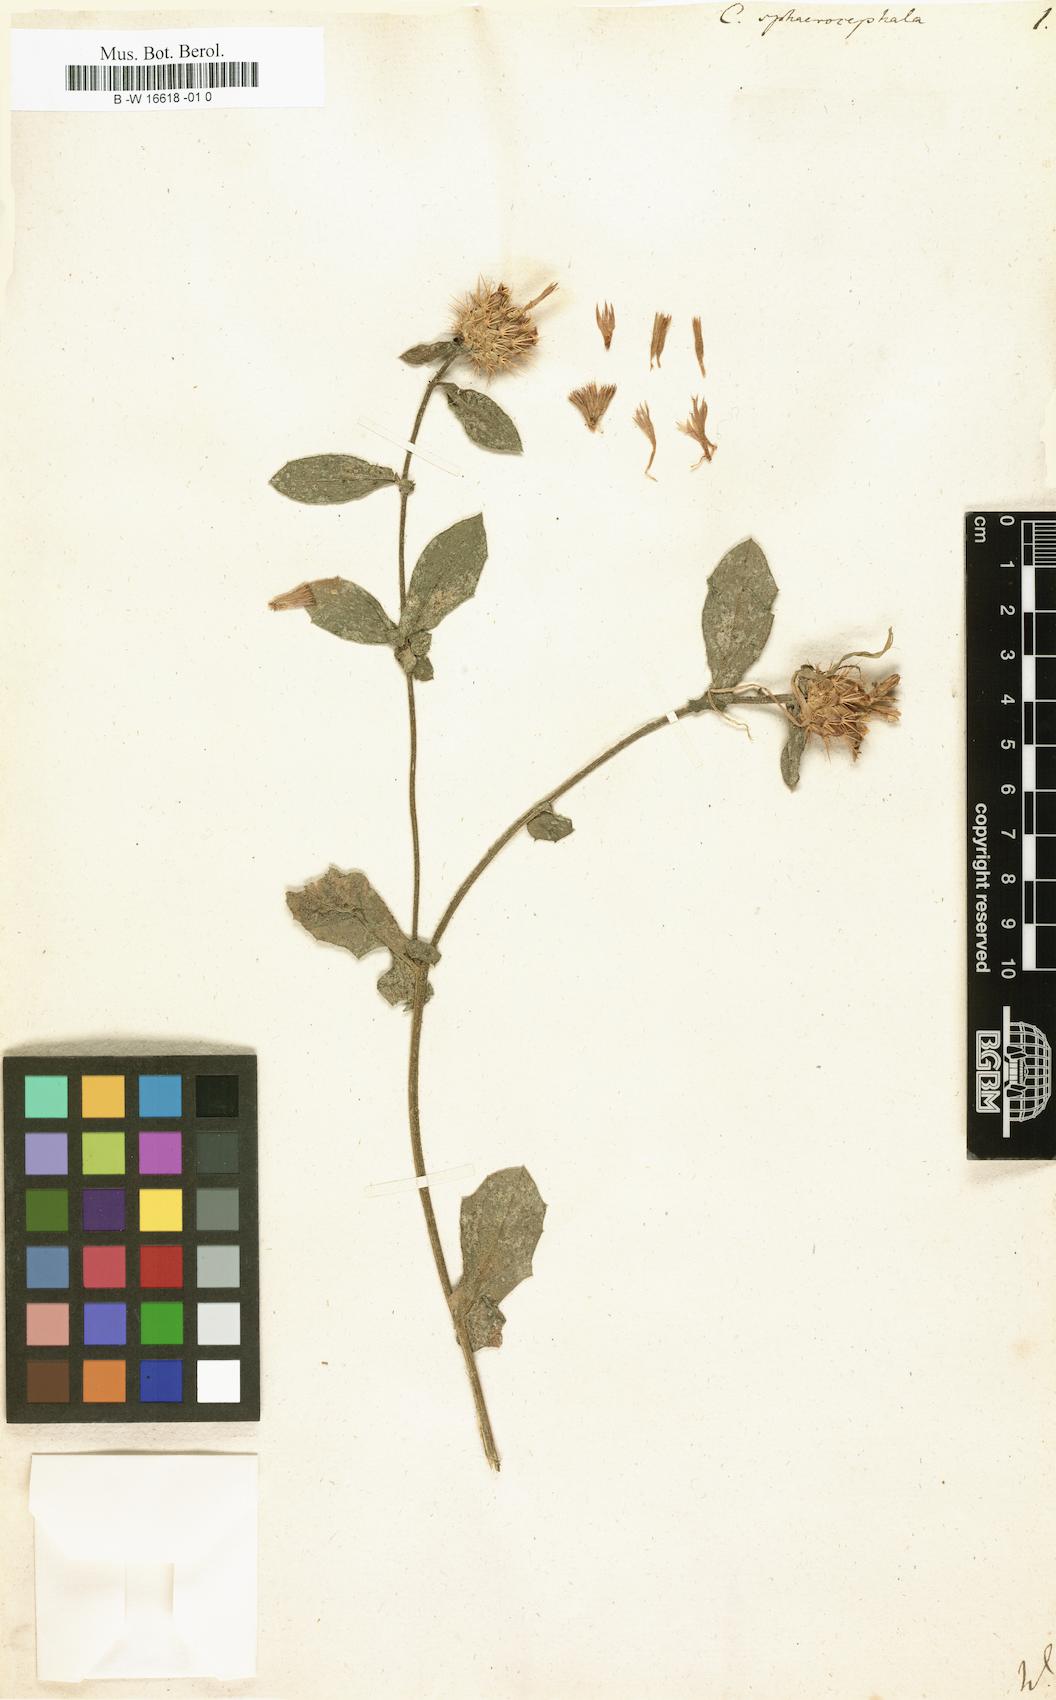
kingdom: Plantae
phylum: Tracheophyta
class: Magnoliopsida
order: Asterales
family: Asteraceae
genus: Centaurea
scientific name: Centaurea sphaerocephala
